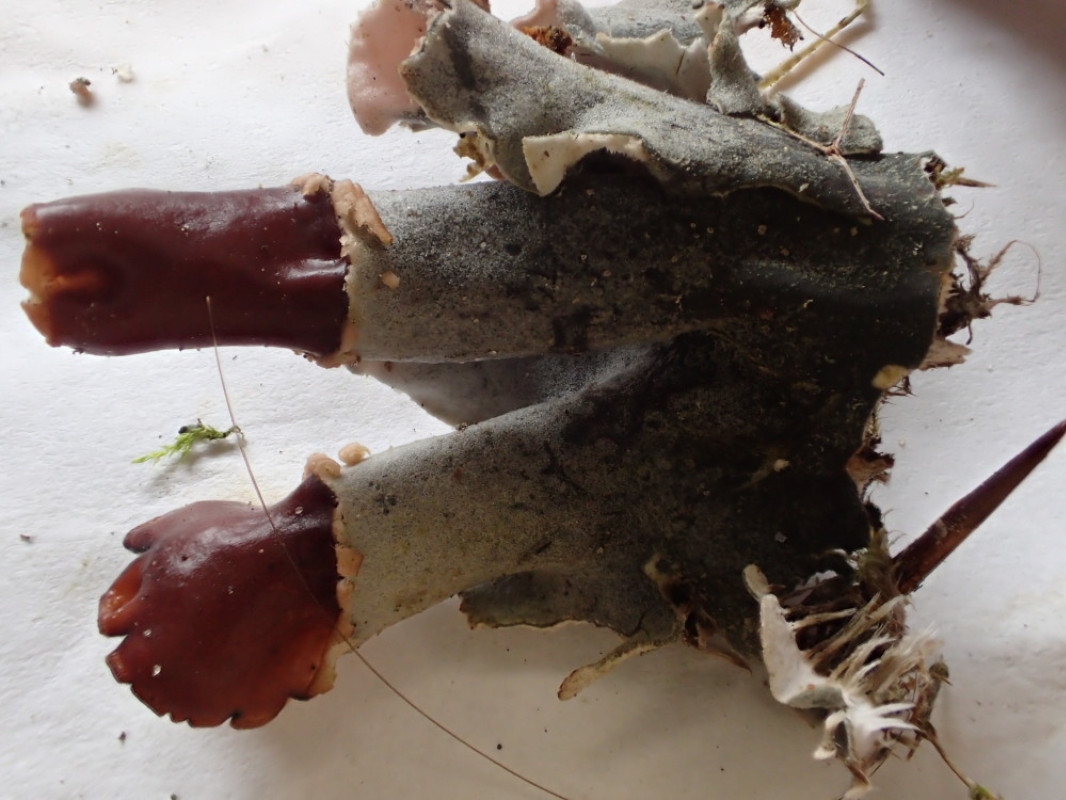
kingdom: Fungi
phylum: Ascomycota
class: Lecanoromycetes
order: Peltigerales
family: Peltigeraceae
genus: Peltigera
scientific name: Peltigera didactyla
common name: liden skjoldlav
